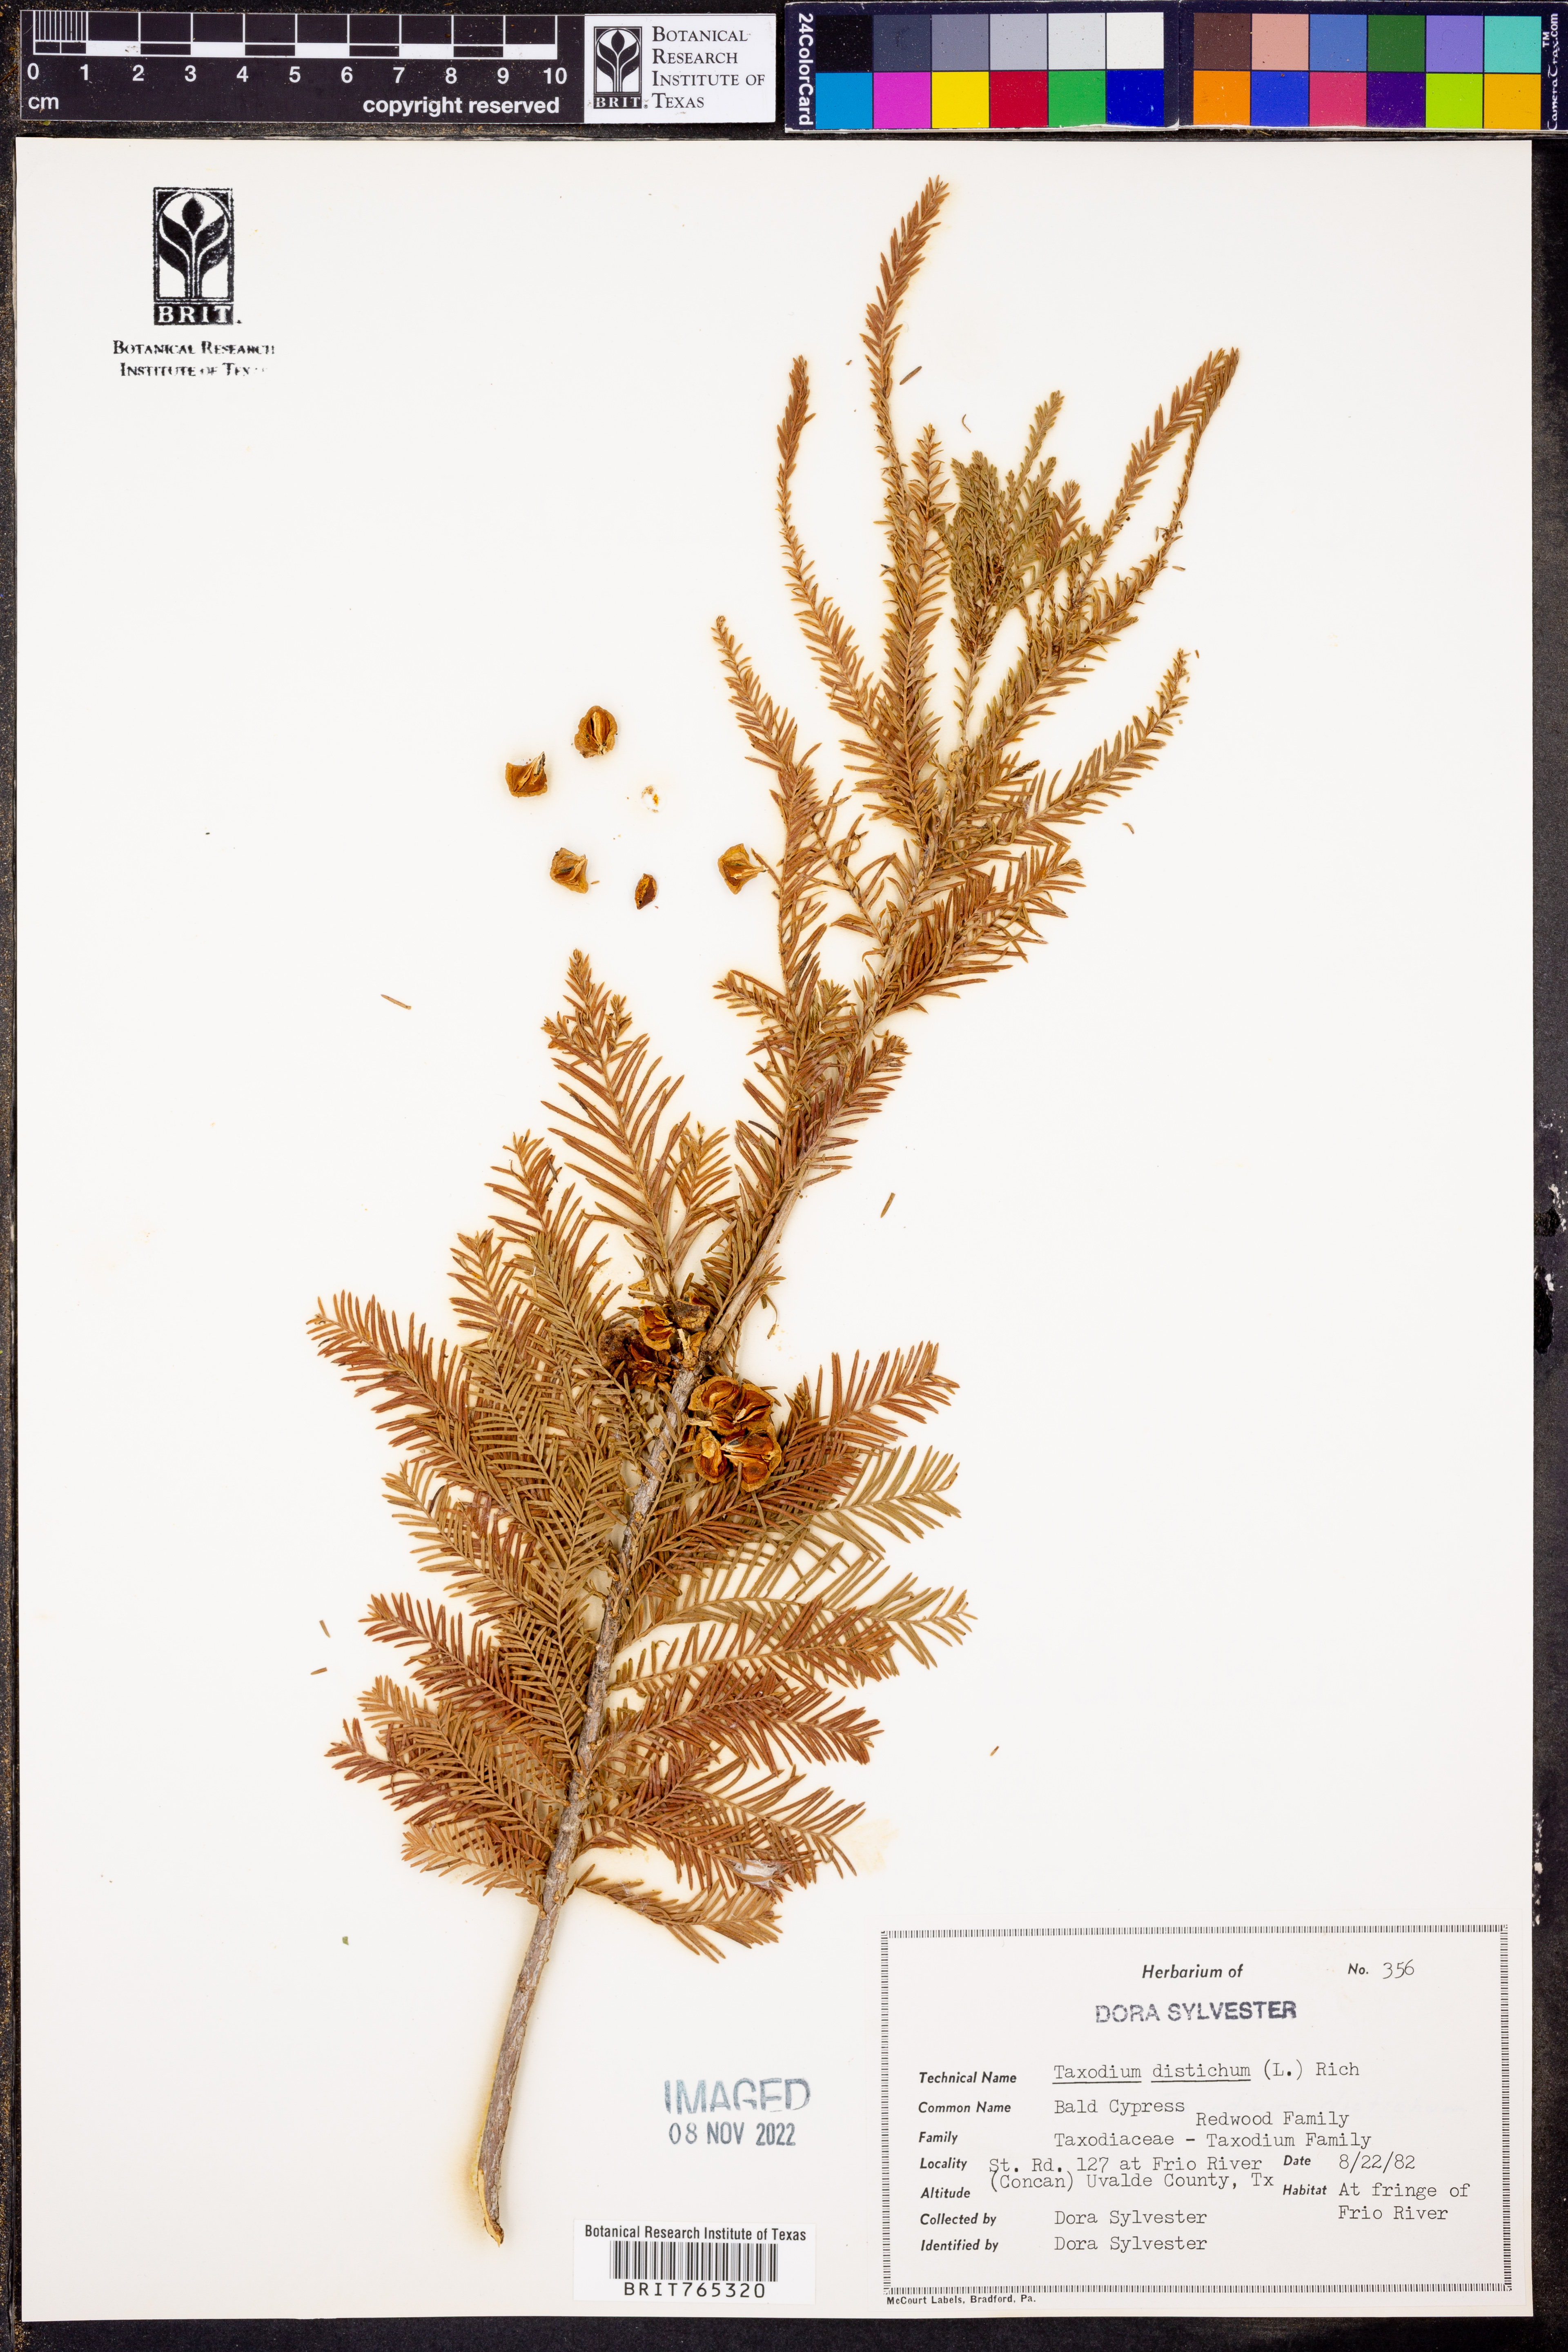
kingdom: Plantae
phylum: Tracheophyta
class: Pinopsida
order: Pinales
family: Cupressaceae
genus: Taxodium
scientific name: Taxodium distichum
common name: Bald cypress
